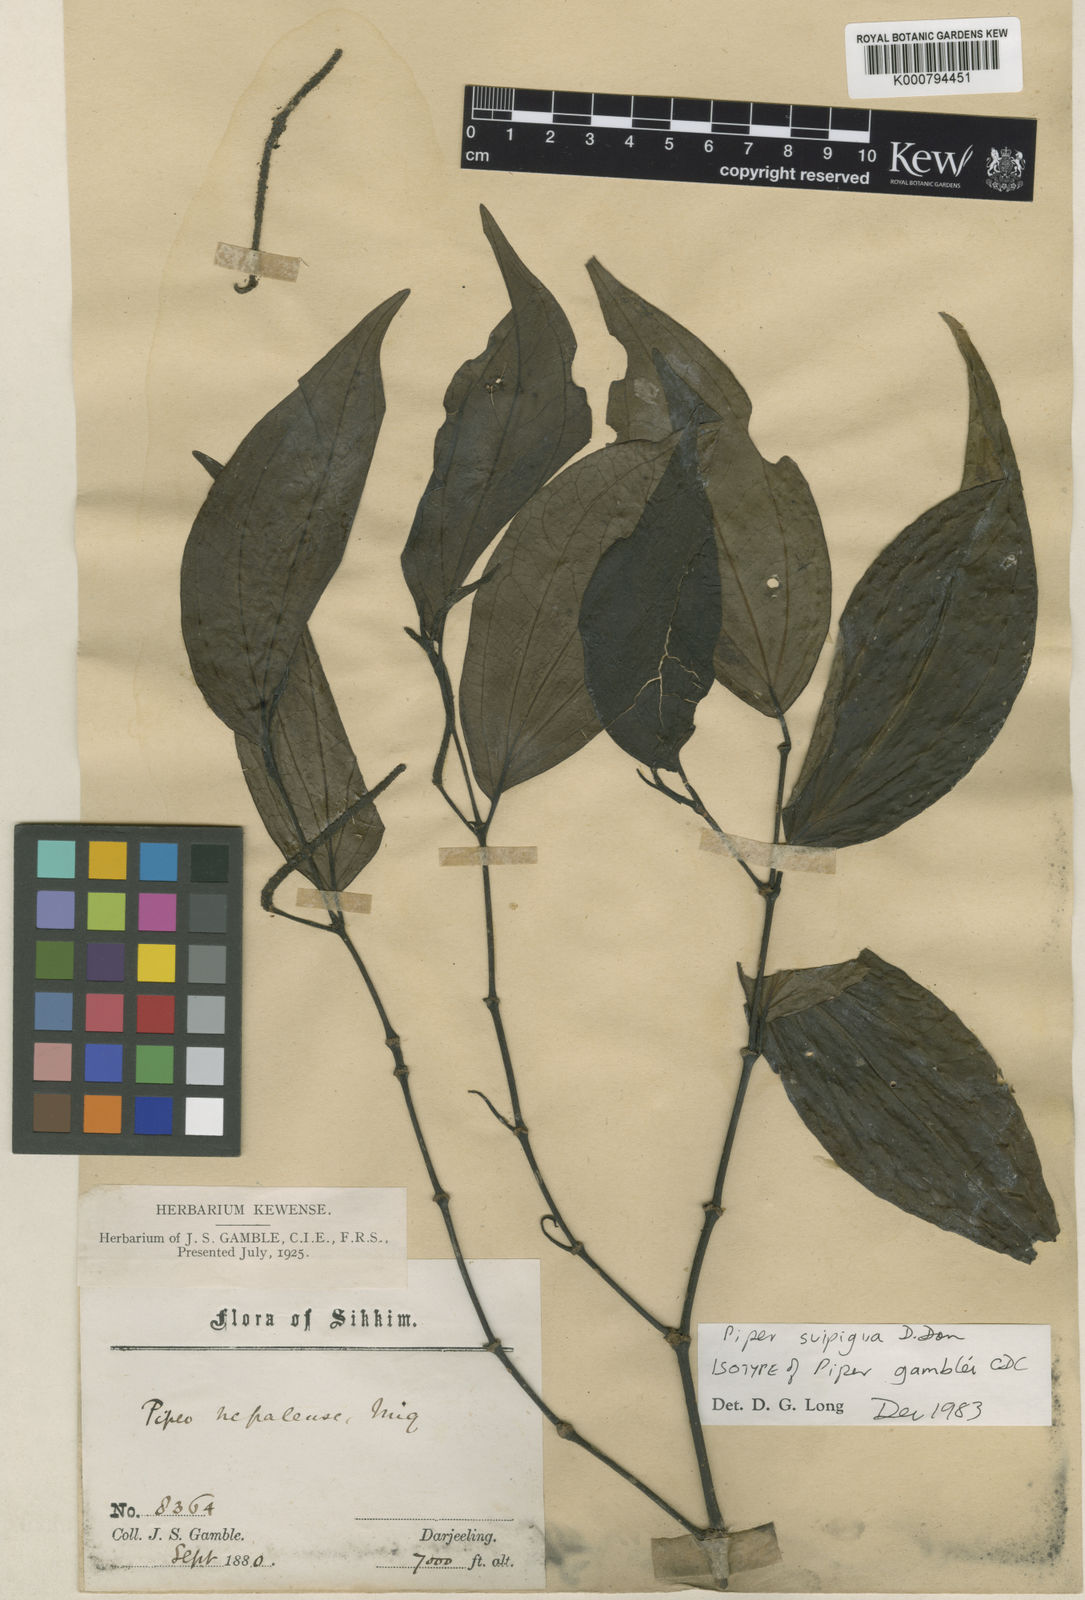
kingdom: Plantae
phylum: Tracheophyta
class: Magnoliopsida
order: Piperales
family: Piperaceae
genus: Piper
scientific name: Piper suipigua
